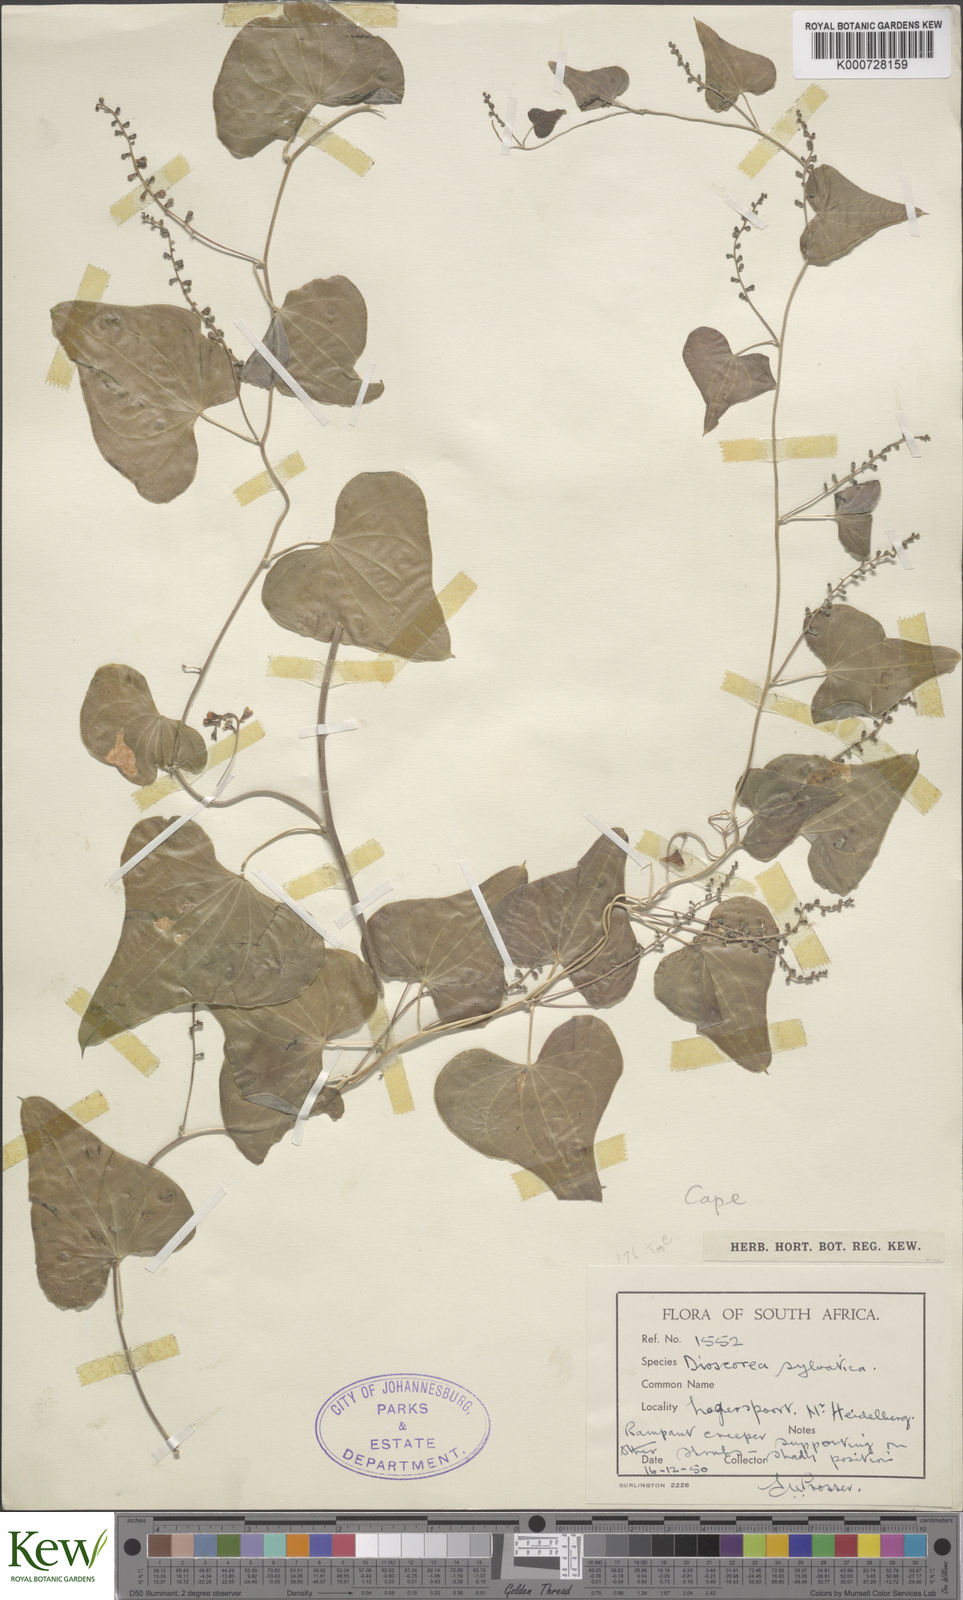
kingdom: Plantae
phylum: Tracheophyta
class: Liliopsida
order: Dioscoreales
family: Dioscoreaceae
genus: Dioscorea
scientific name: Dioscorea sylvatica
